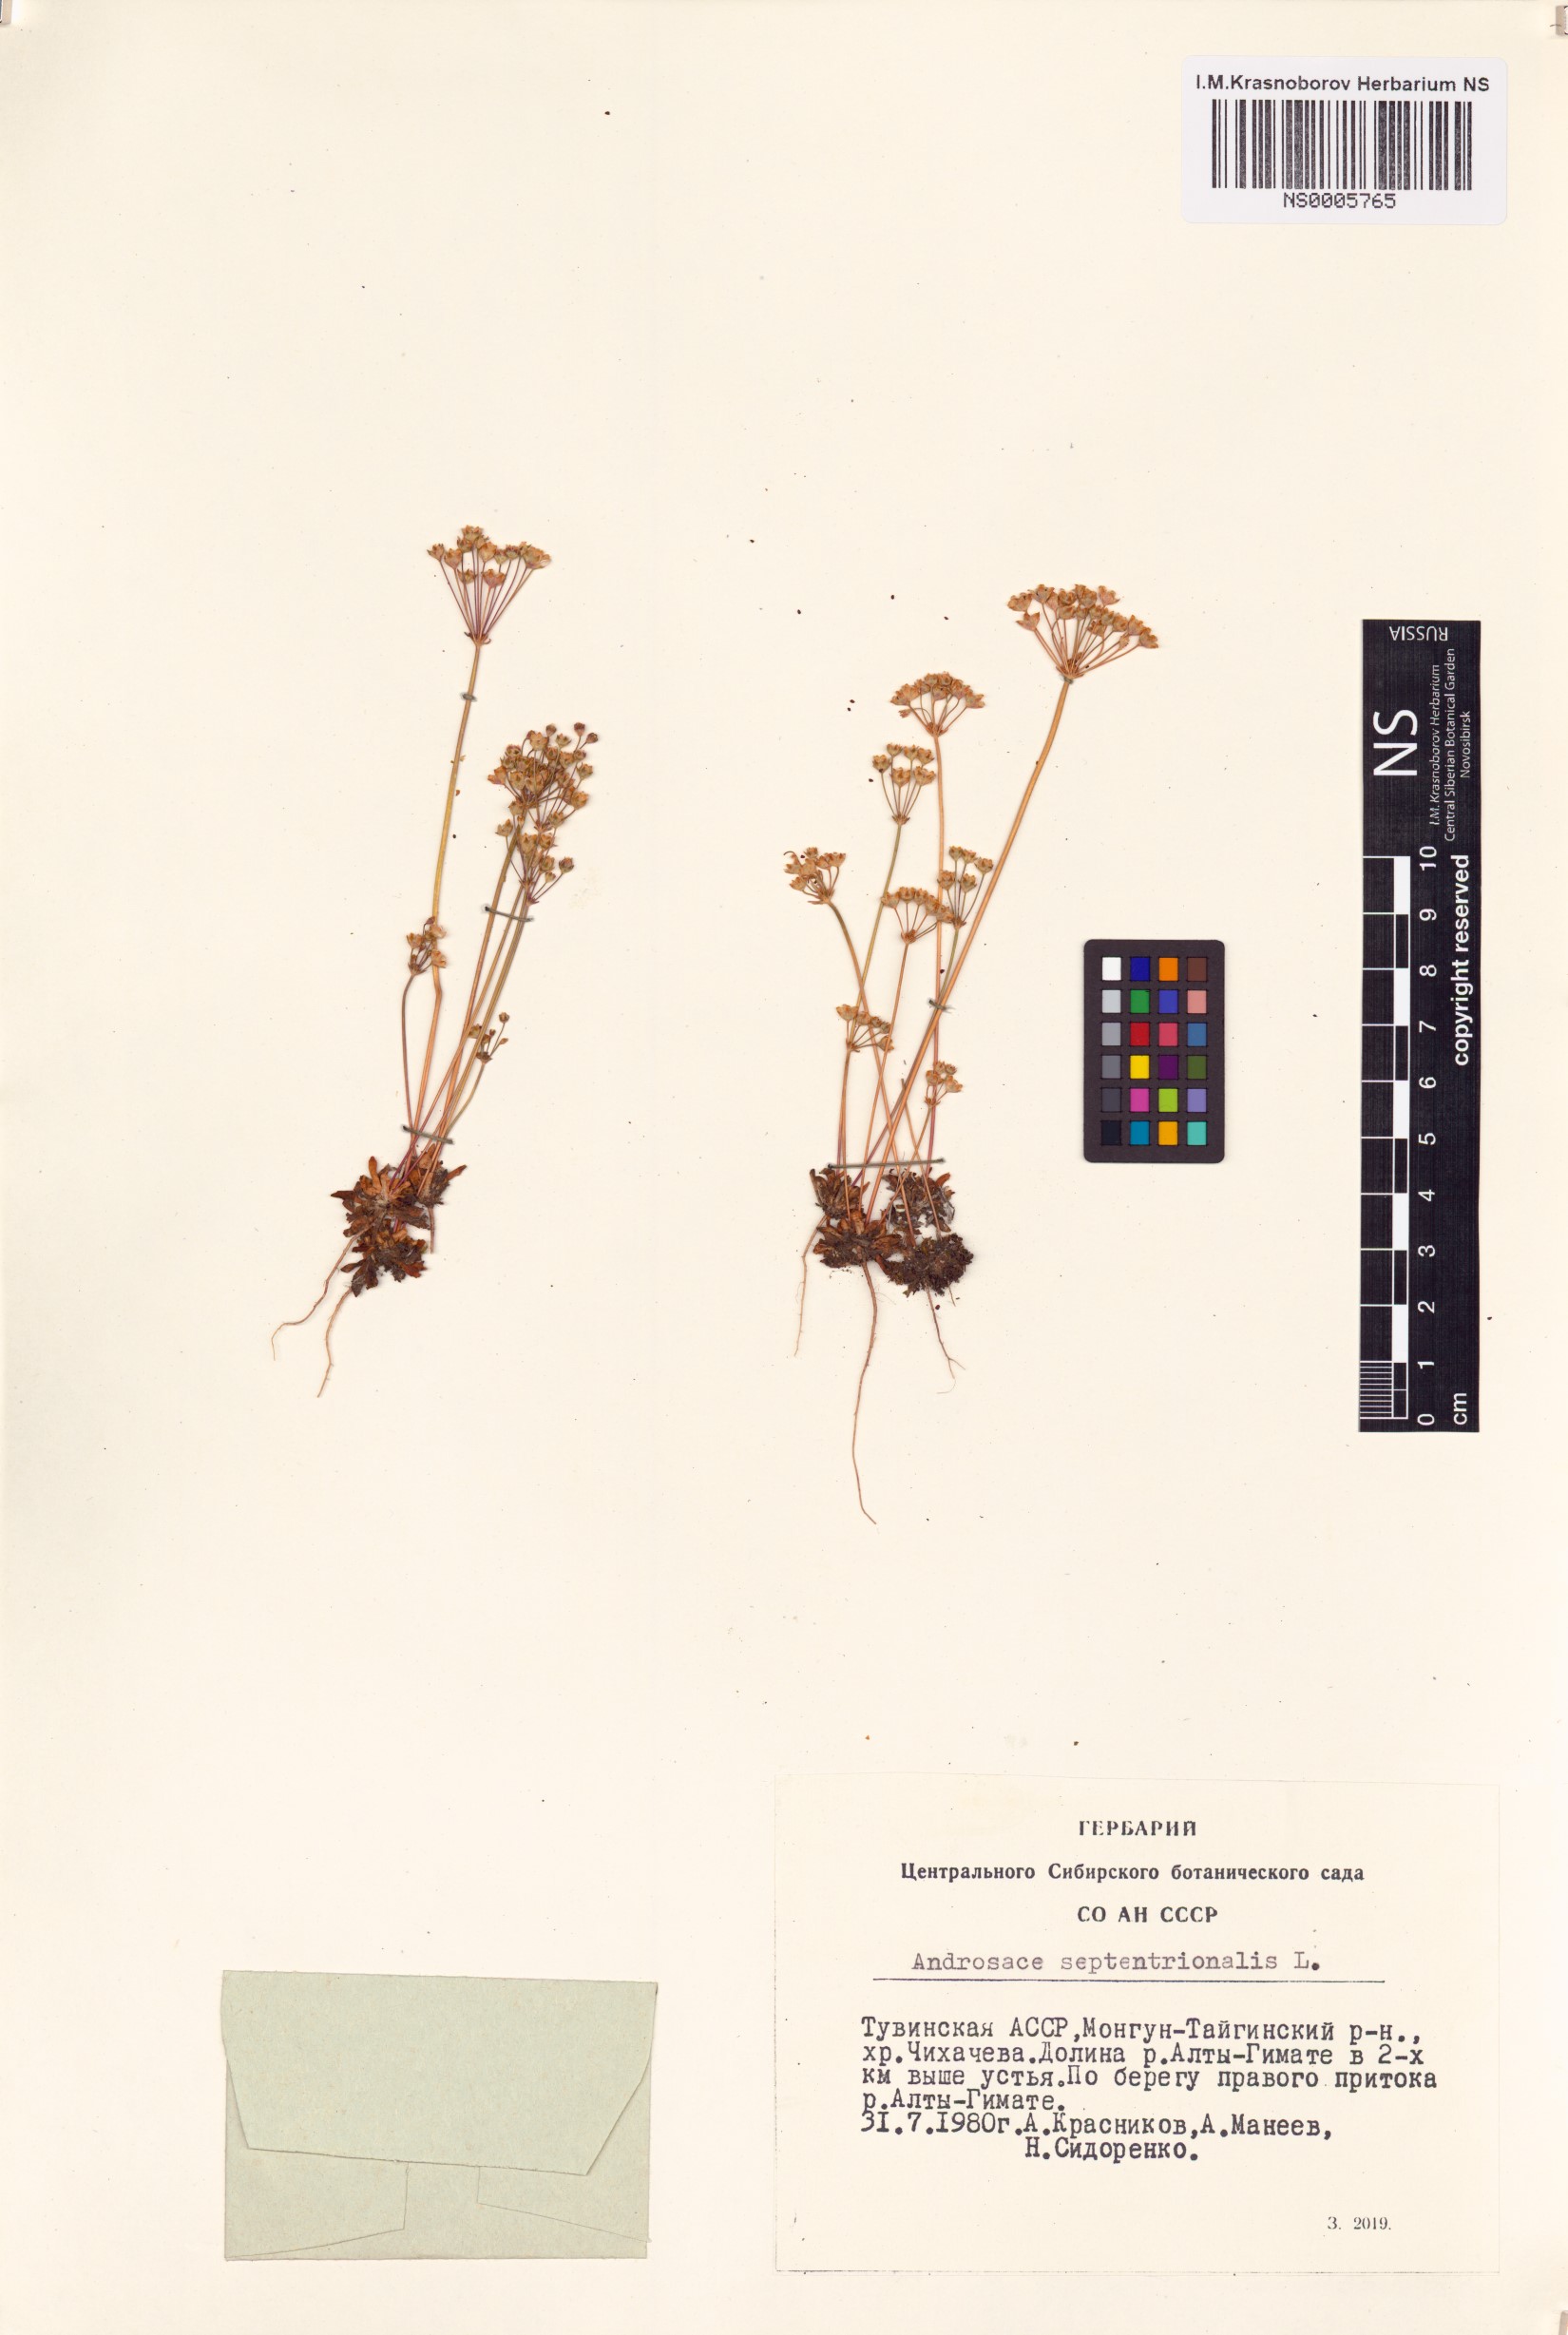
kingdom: Plantae
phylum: Tracheophyta
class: Magnoliopsida
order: Ericales
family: Primulaceae
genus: Androsace
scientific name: Androsace septentrionalis
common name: Hairy northern fairy-candelabra
